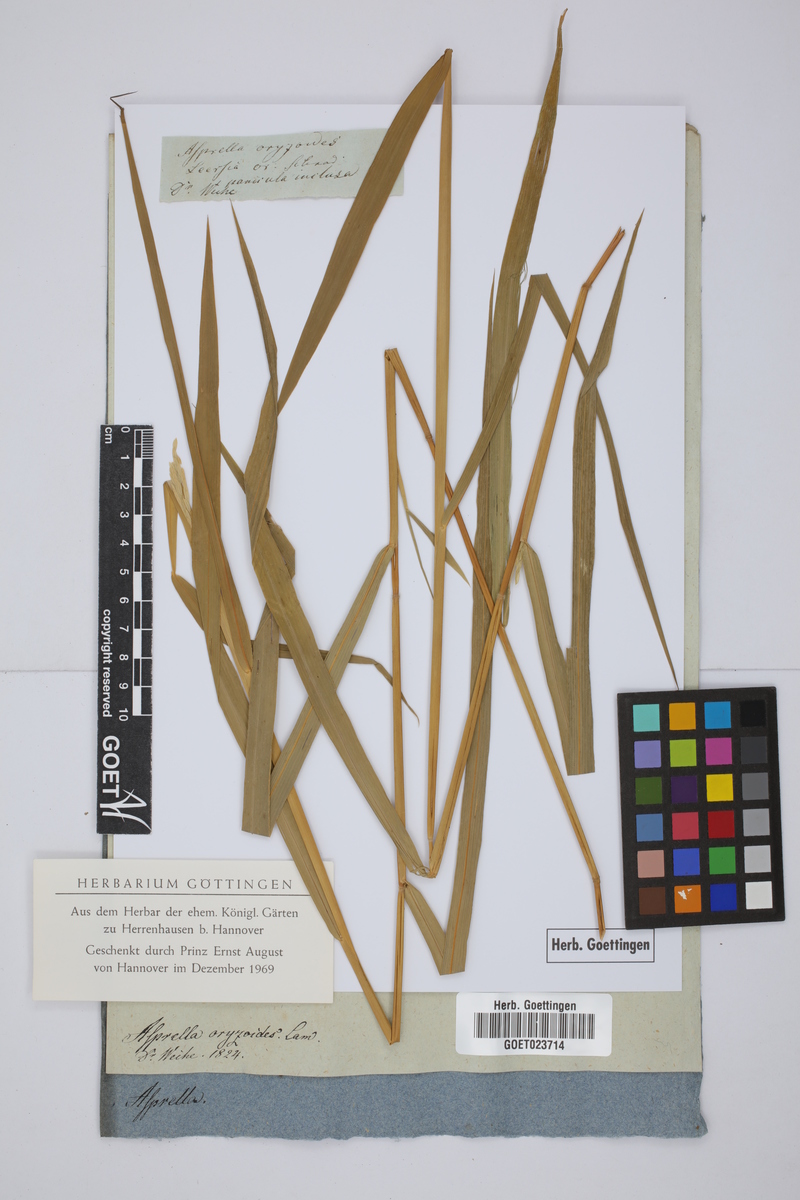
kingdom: Plantae
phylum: Tracheophyta
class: Liliopsida
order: Poales
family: Poaceae
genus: Leersia
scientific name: Leersia oryzoides
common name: Cut-grass
